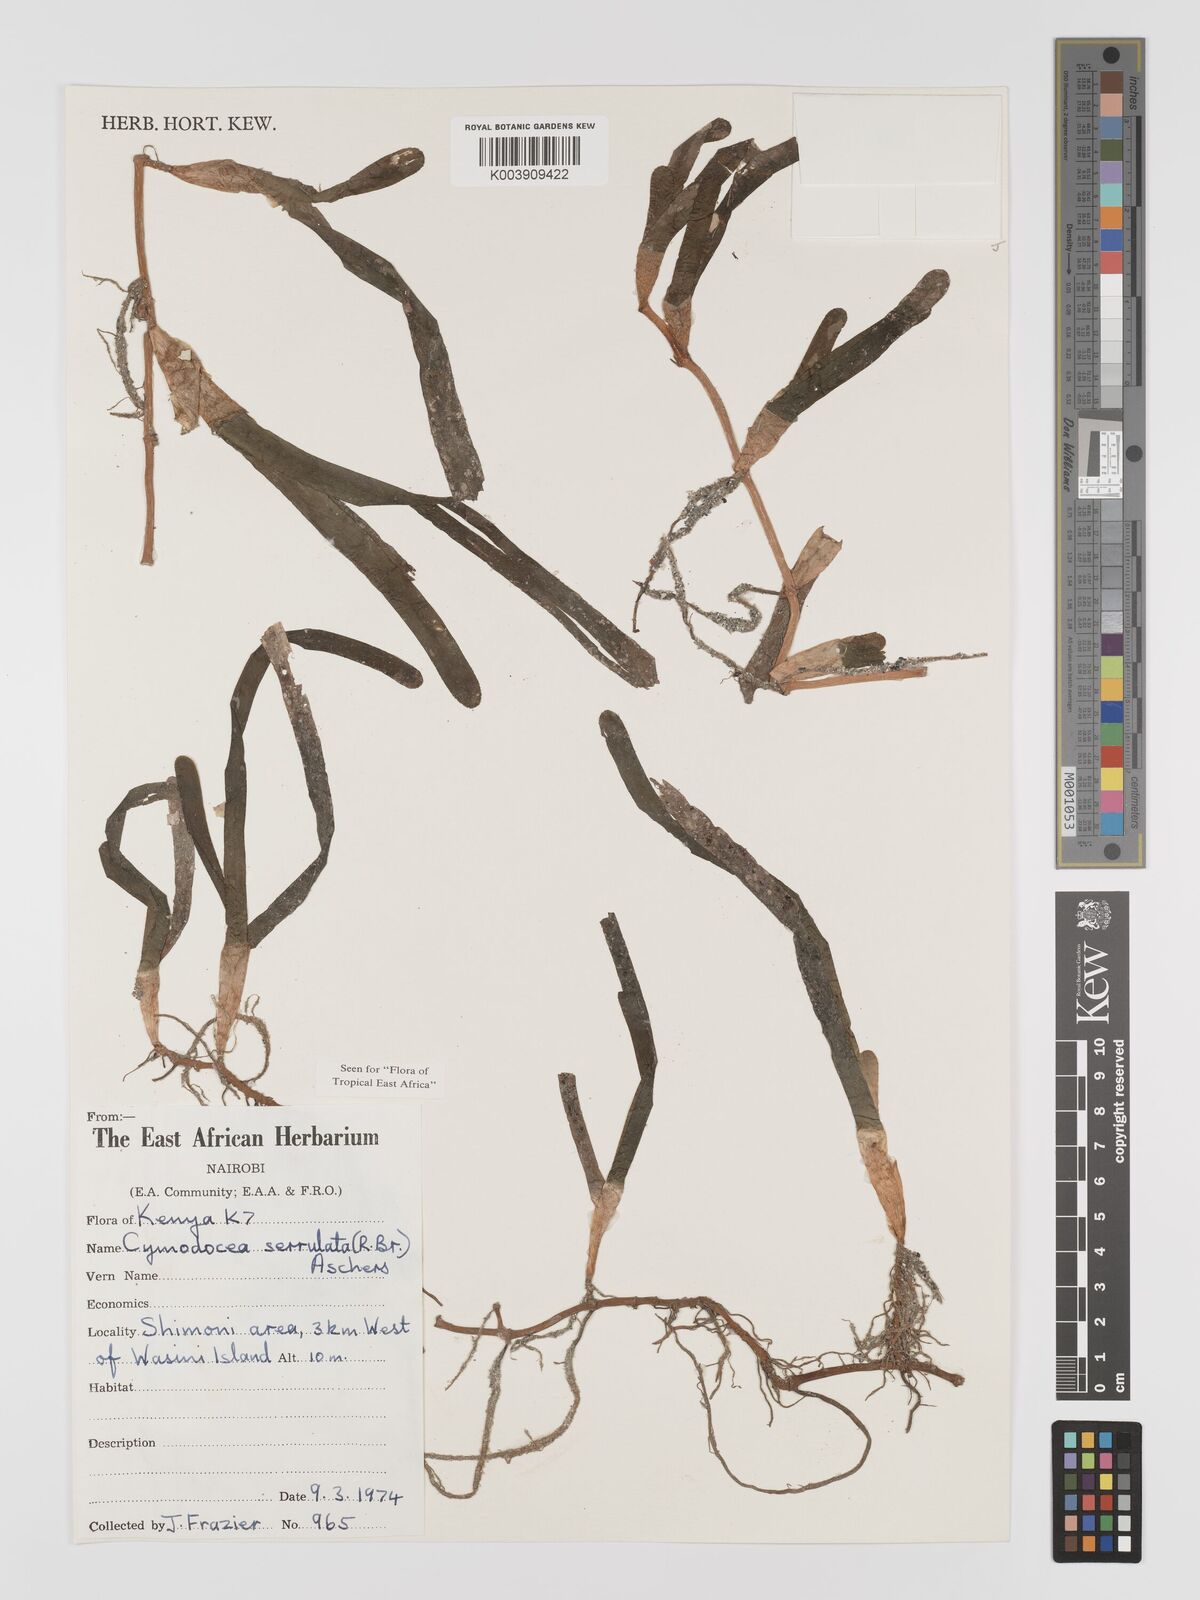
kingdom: Plantae
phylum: Tracheophyta
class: Liliopsida
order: Alismatales
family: Cymodoceaceae
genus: Oceana
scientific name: Oceana serrulata
